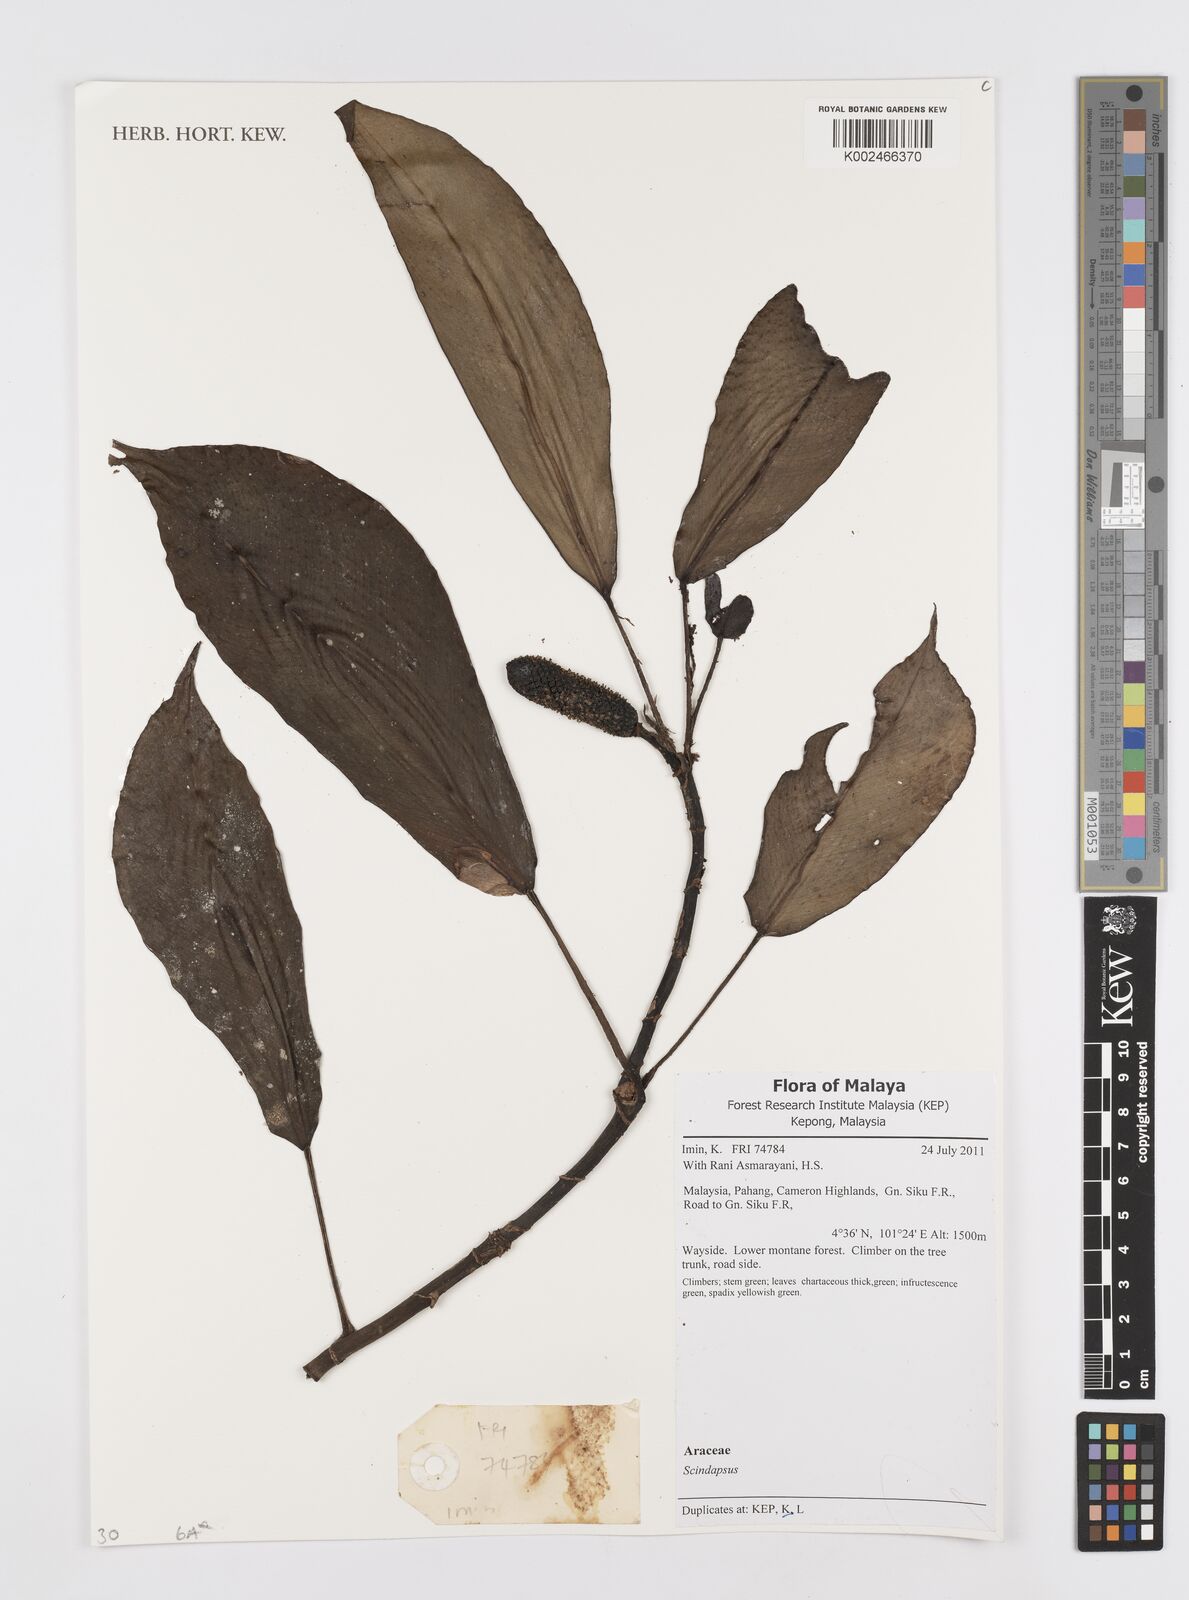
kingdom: Plantae
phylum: Tracheophyta
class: Liliopsida
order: Alismatales
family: Araceae
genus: Scindapsus
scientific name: Scindapsus
